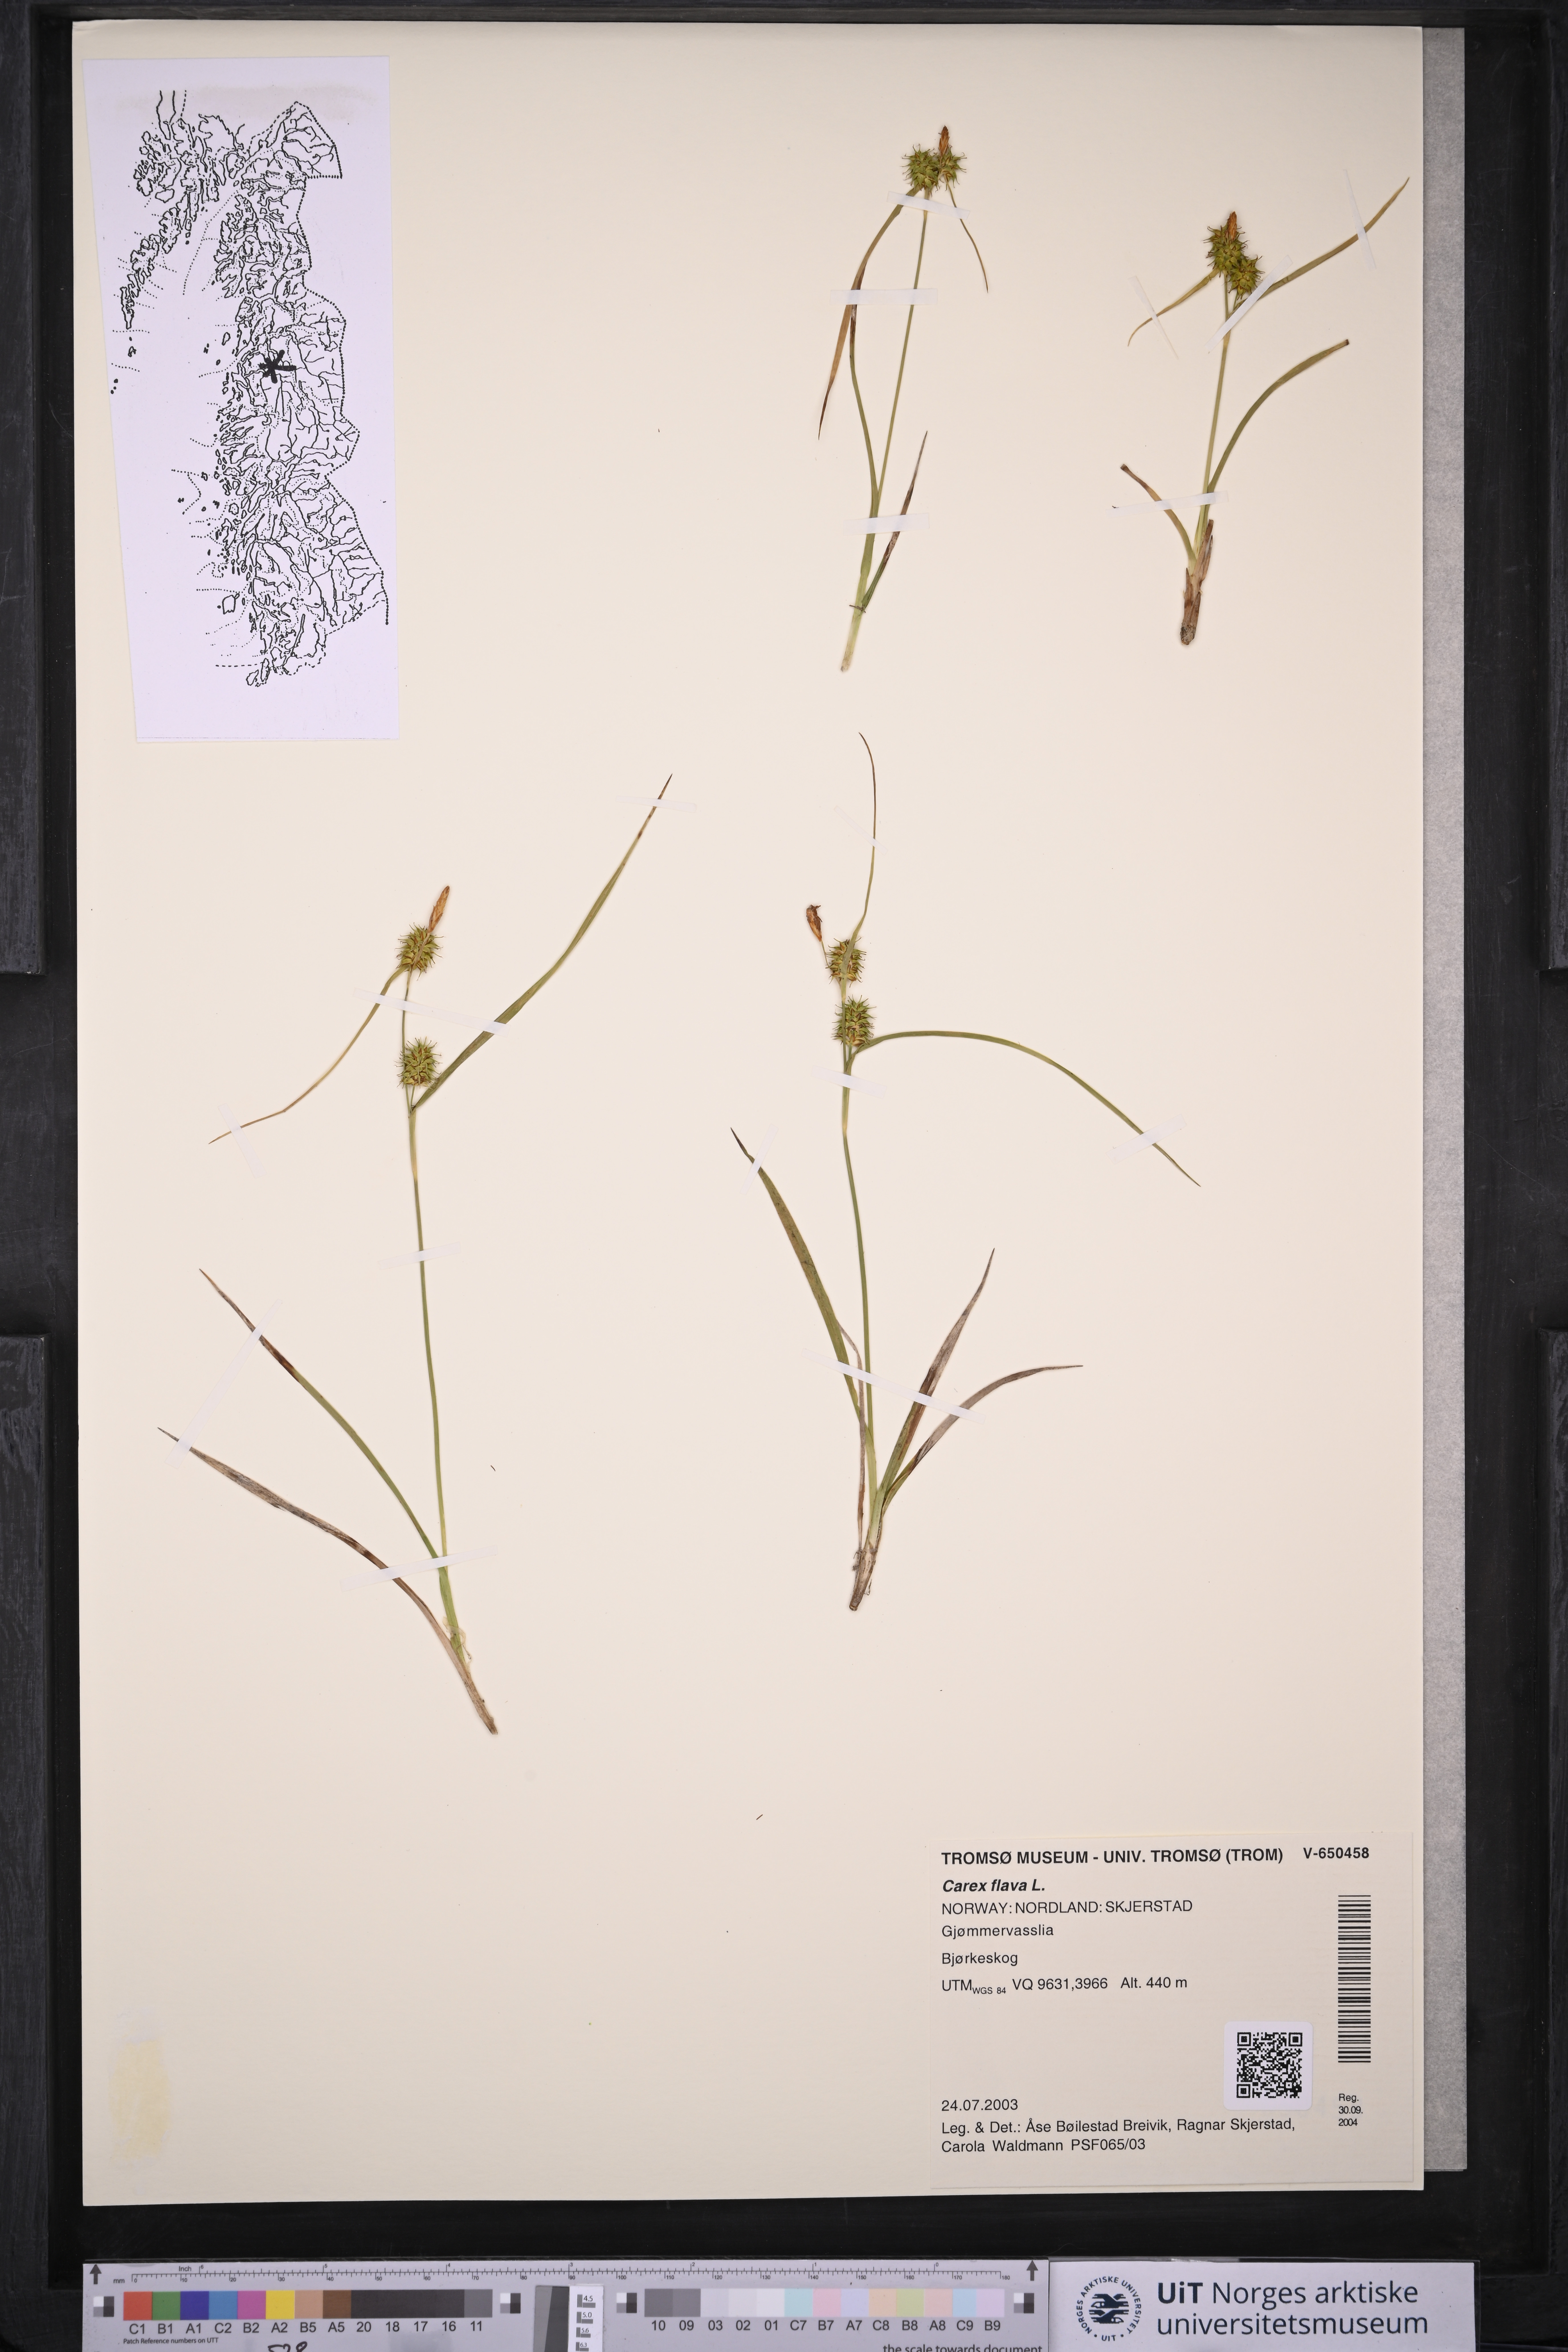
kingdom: Plantae
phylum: Tracheophyta
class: Liliopsida
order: Poales
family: Cyperaceae
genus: Carex
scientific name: Carex flava
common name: Large yellow-sedge
